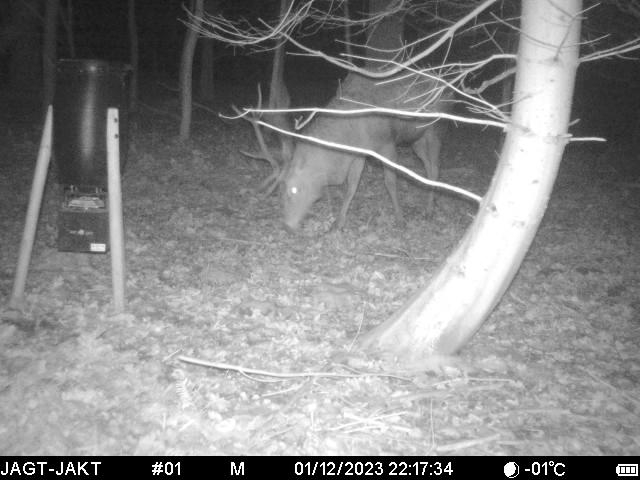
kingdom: Animalia
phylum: Chordata
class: Mammalia
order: Artiodactyla
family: Cervidae
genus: Cervus
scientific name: Cervus elaphus
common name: Krondyr
